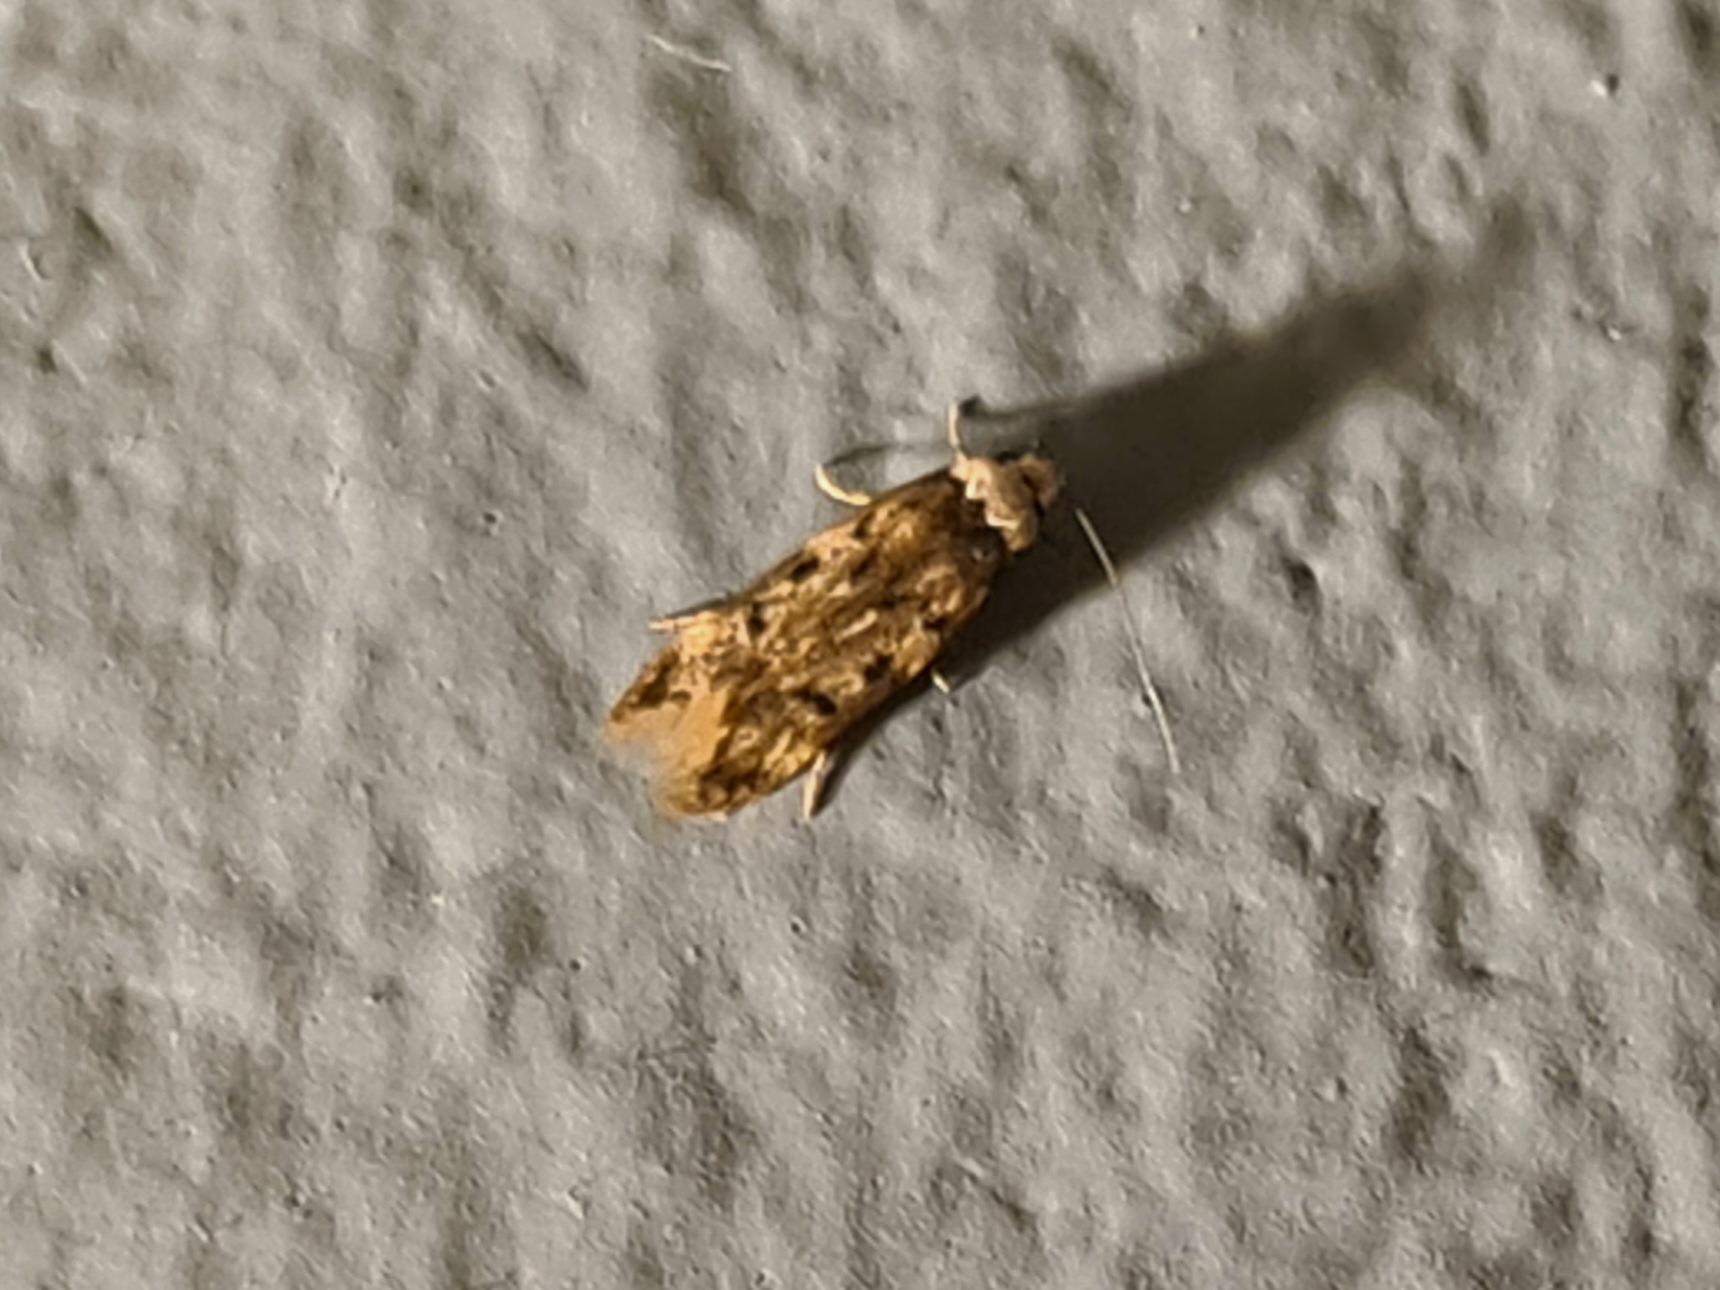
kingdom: Animalia
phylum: Arthropoda
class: Insecta
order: Lepidoptera
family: Oecophoridae
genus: Endrosis
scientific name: Endrosis sarcitrella
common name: Klistermøl
